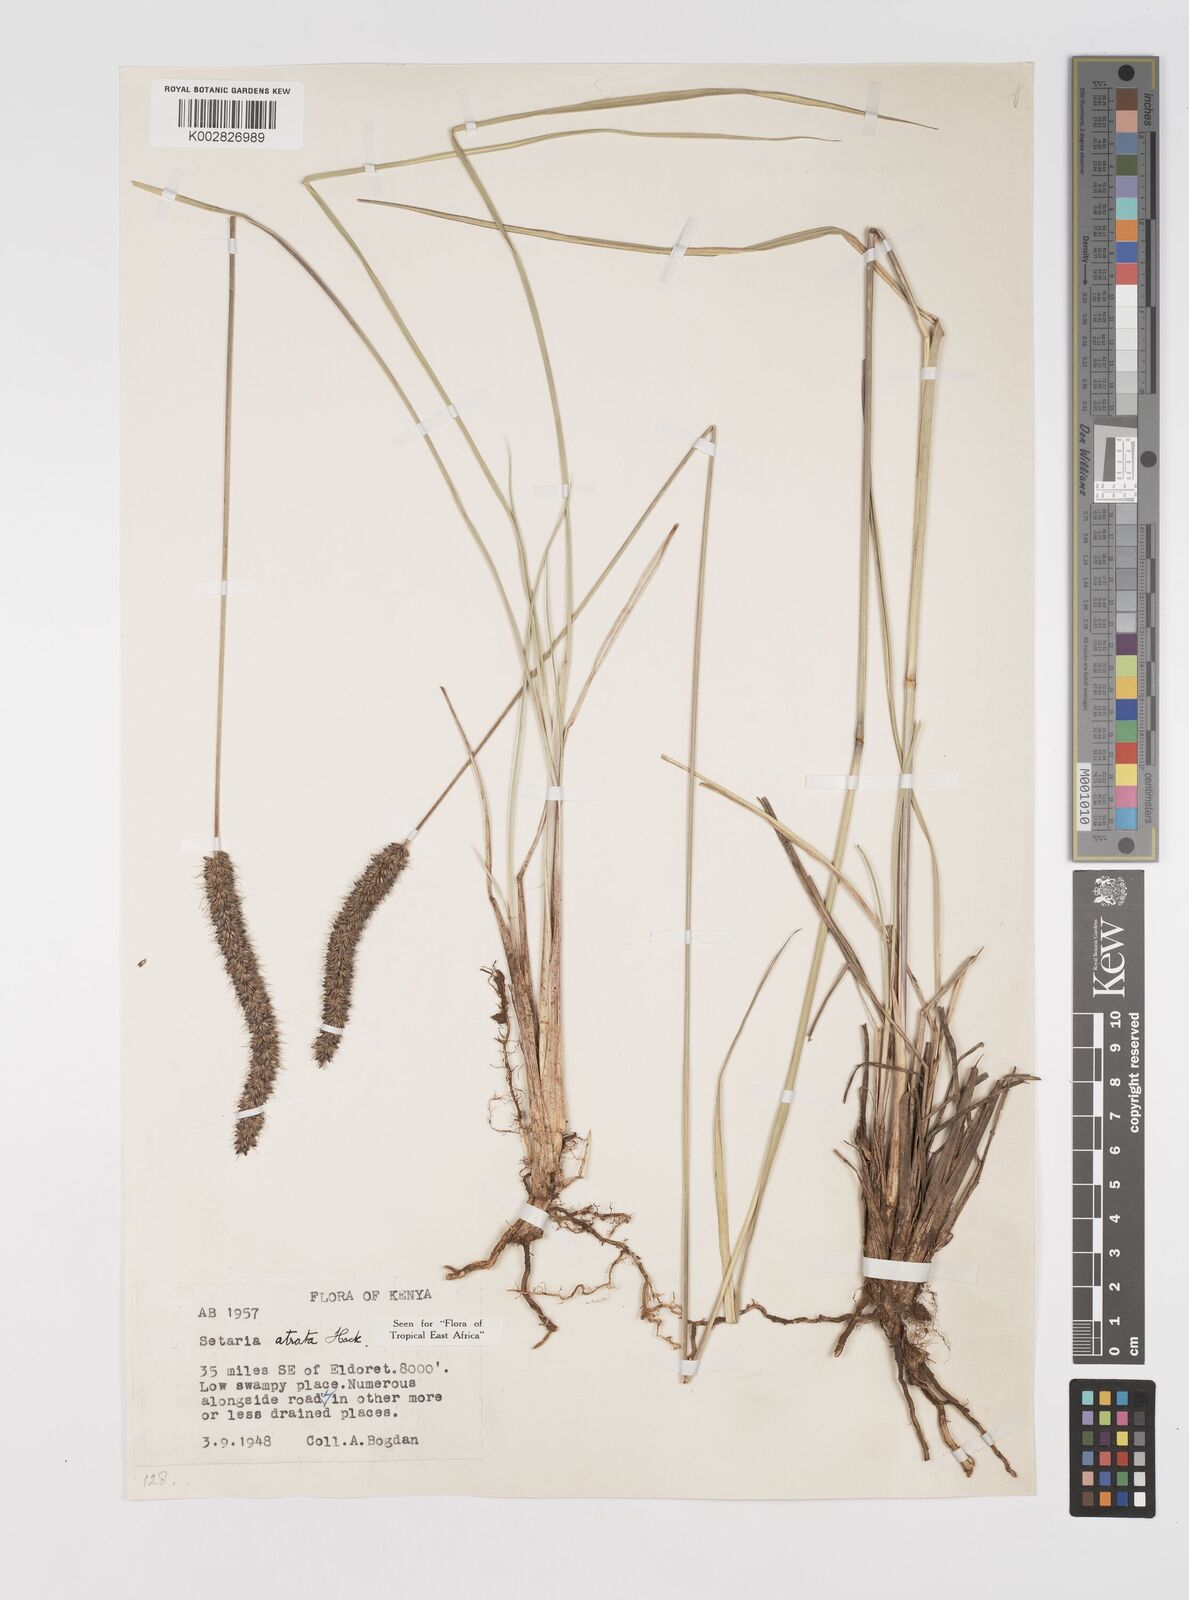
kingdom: Plantae
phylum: Tracheophyta
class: Liliopsida
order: Poales
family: Poaceae
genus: Setaria
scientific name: Setaria atrata
